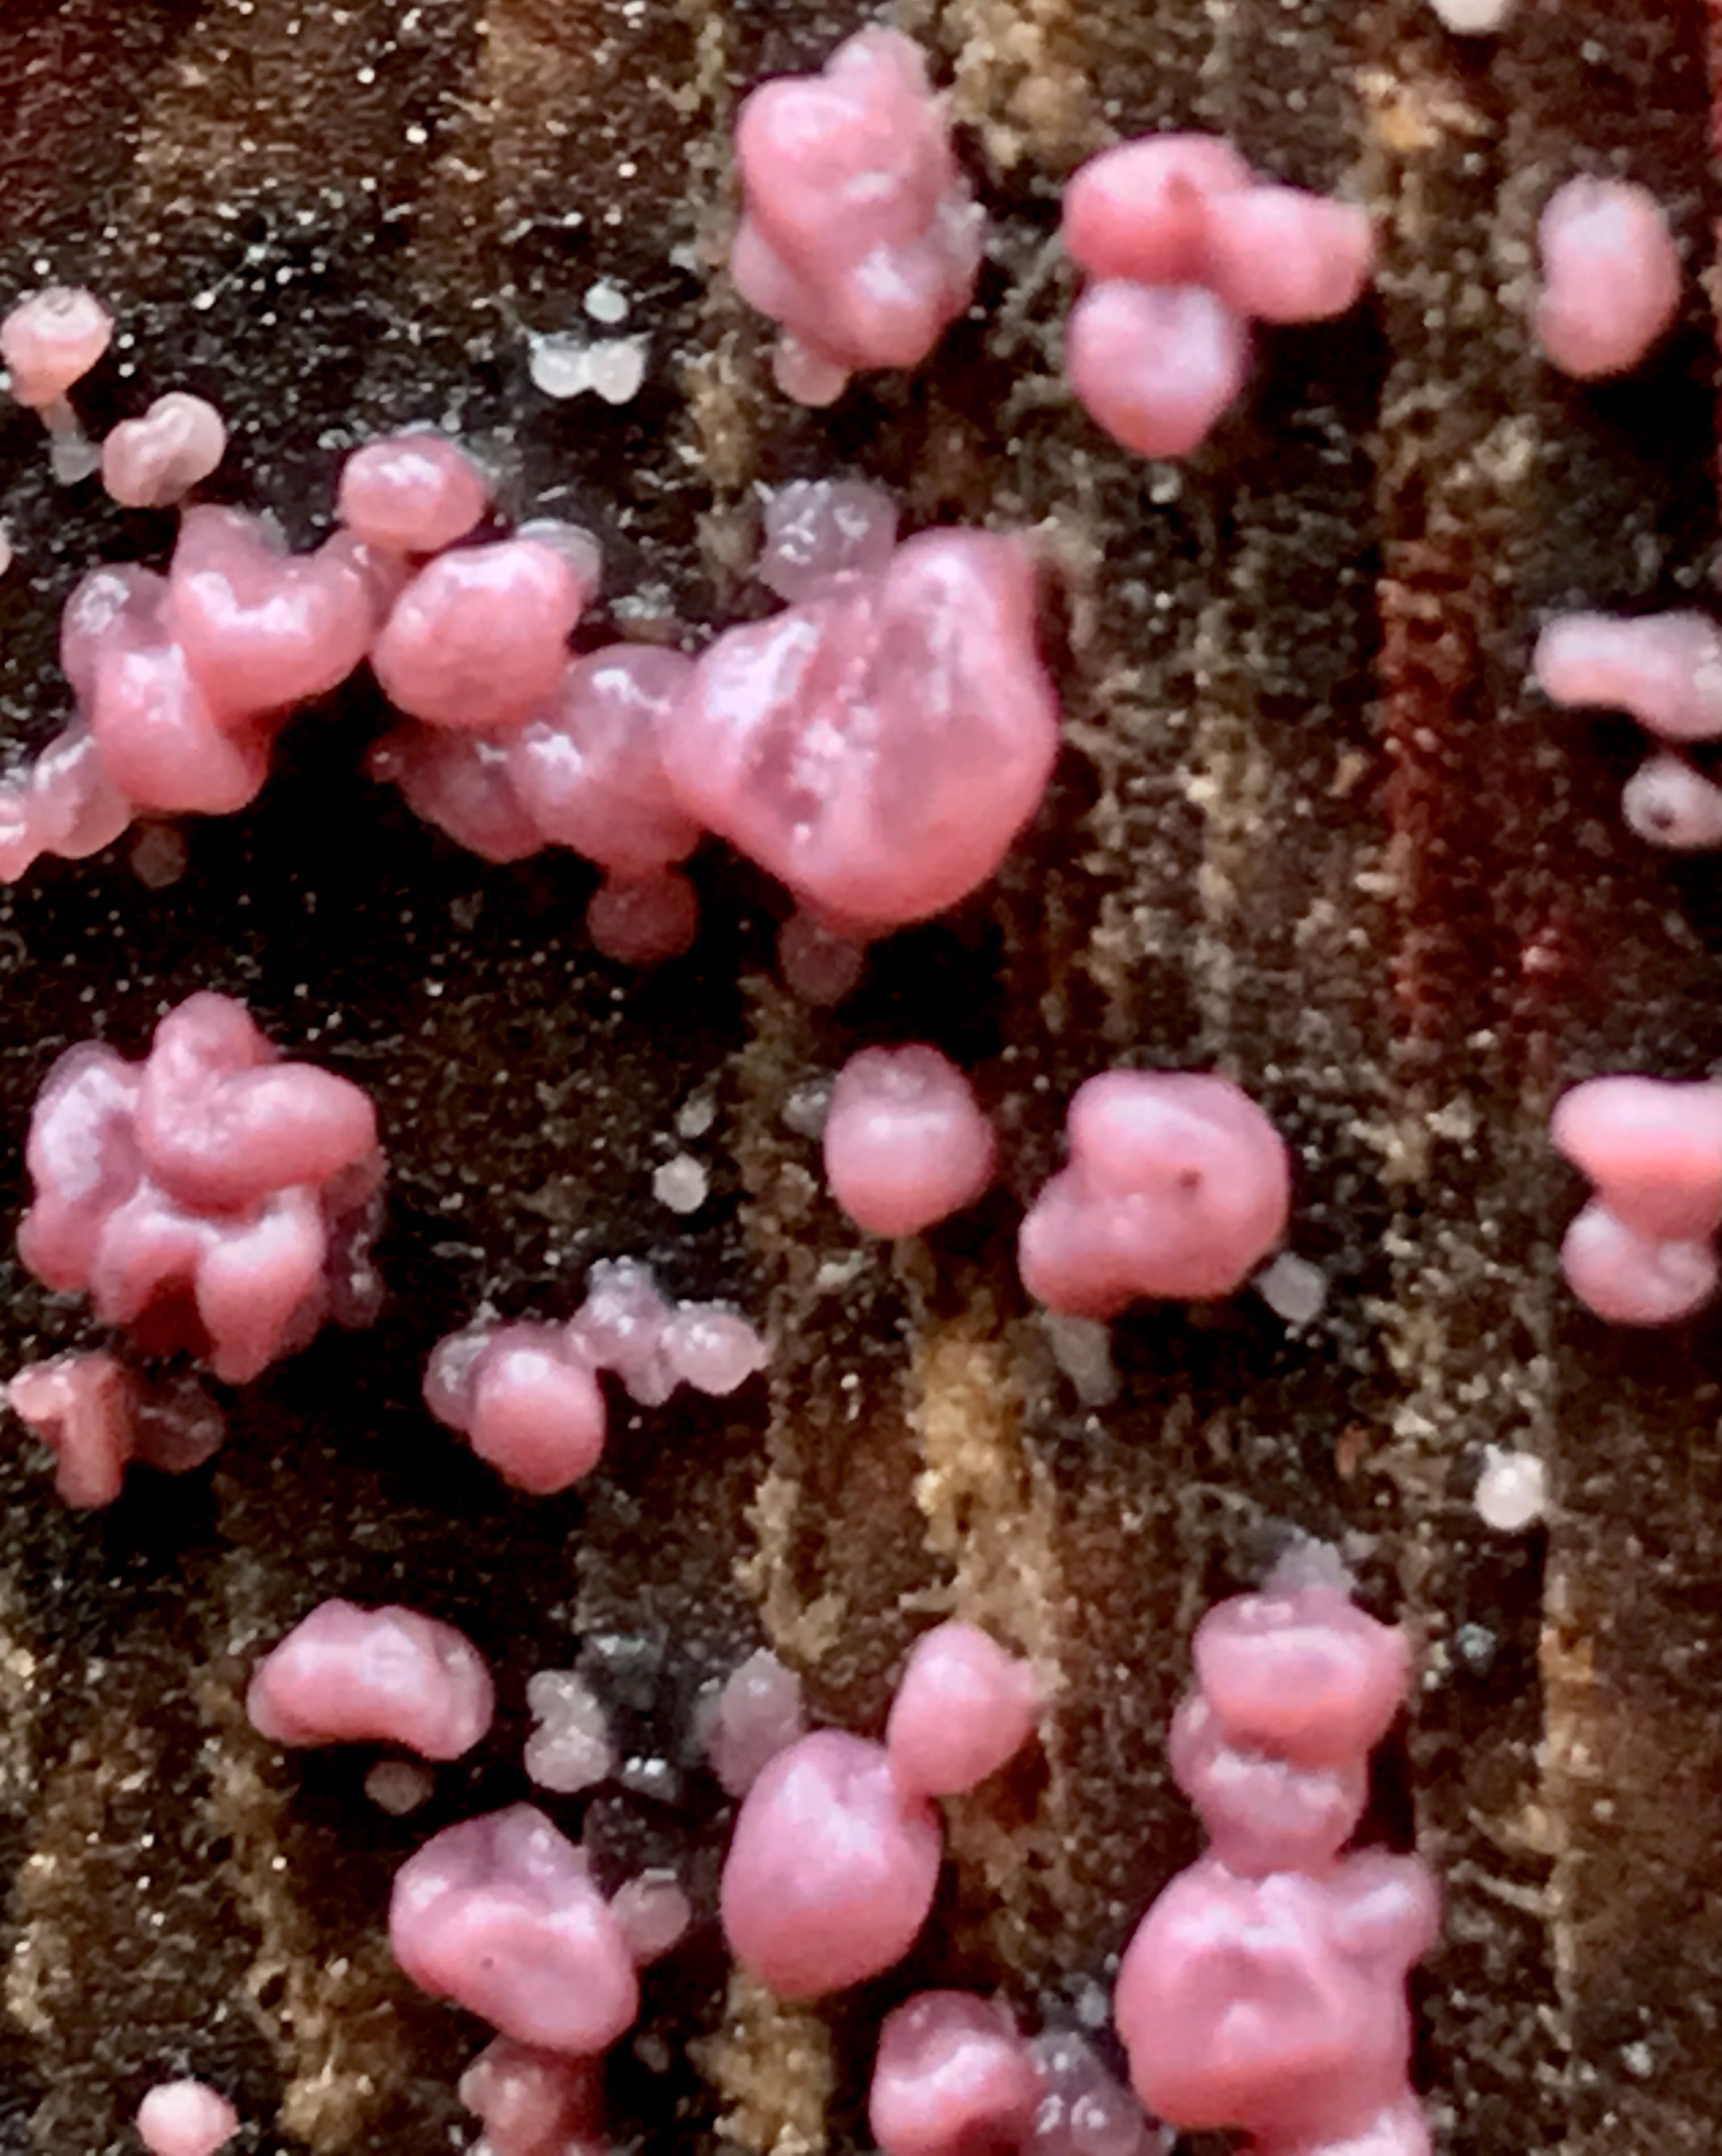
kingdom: Fungi
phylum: Ascomycota
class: Leotiomycetes
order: Helotiales
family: Gelatinodiscaceae
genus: Ascocoryne
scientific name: Ascocoryne sarcoides
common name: rødlilla sejskive
